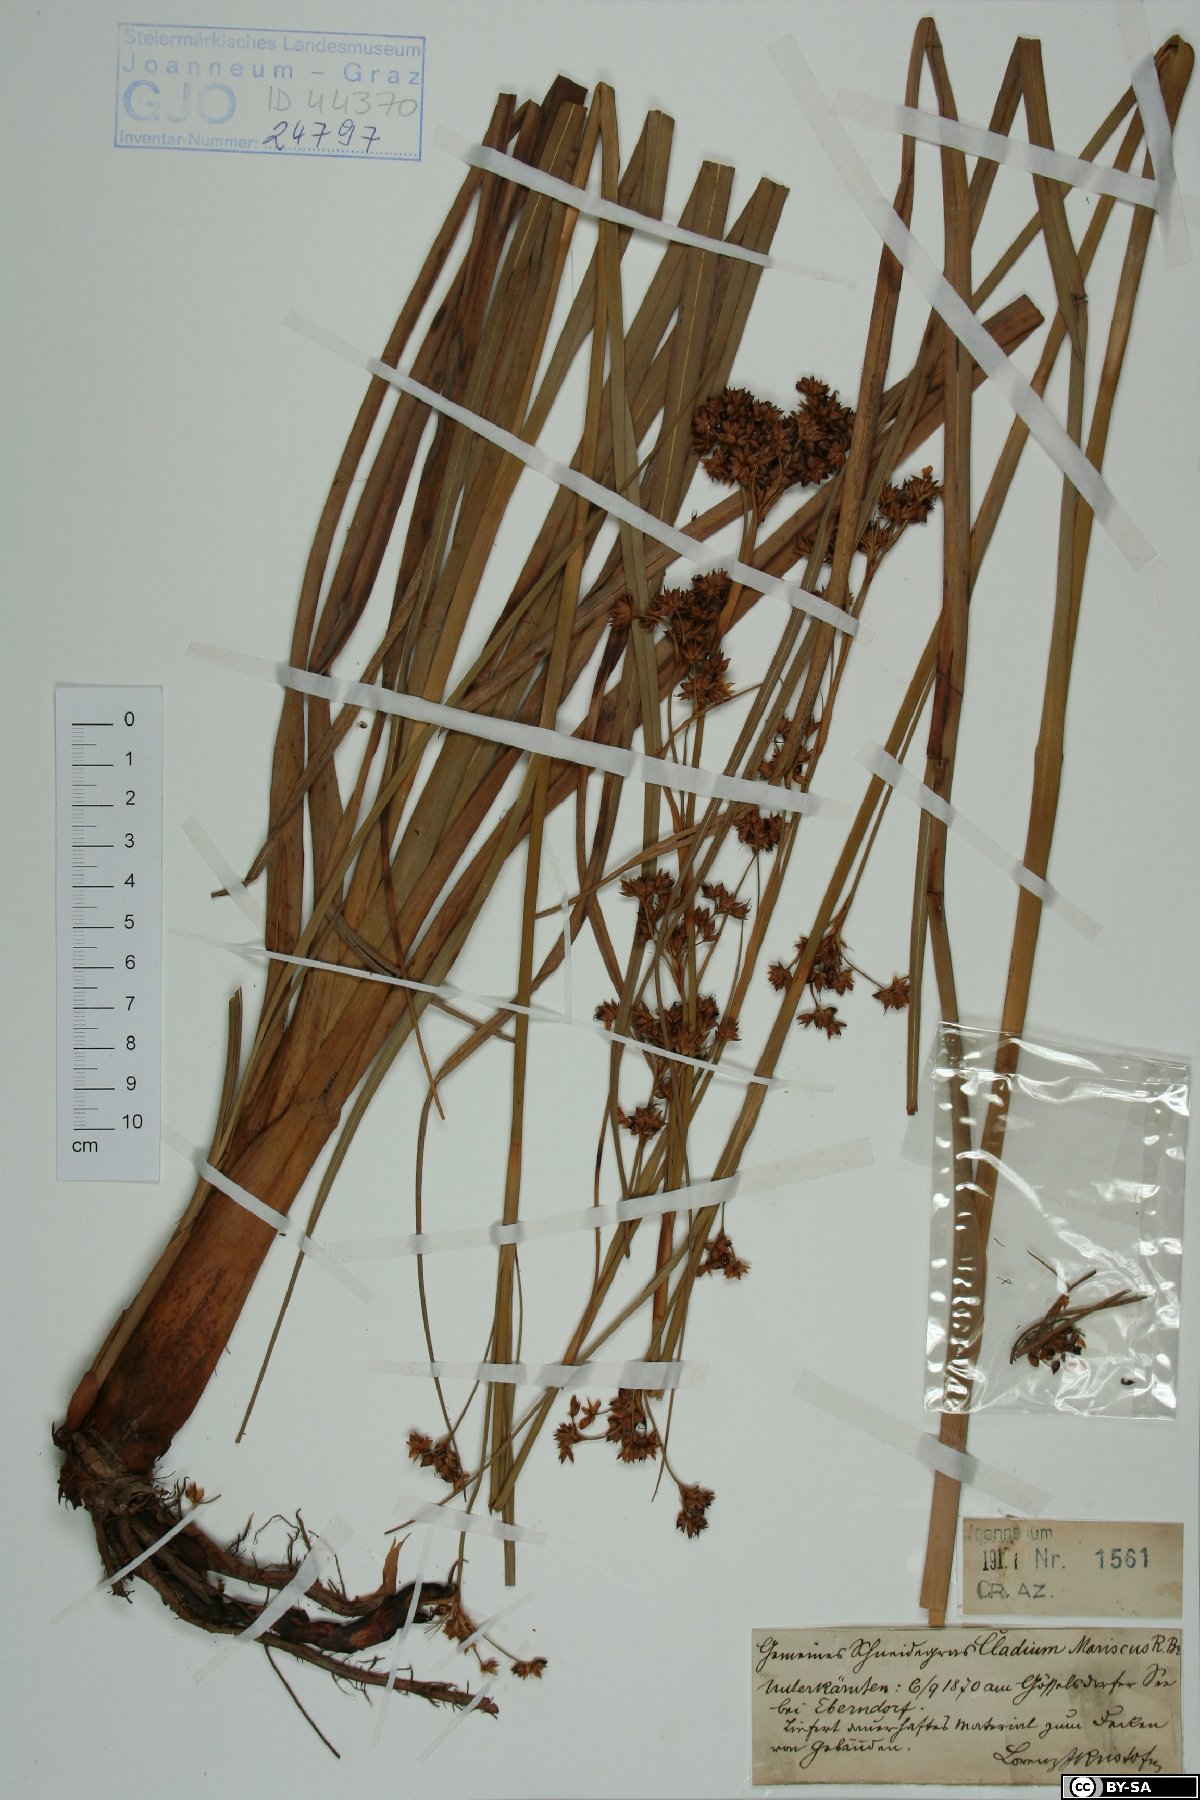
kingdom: Plantae
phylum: Tracheophyta
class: Liliopsida
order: Poales
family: Cyperaceae
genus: Cladium
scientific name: Cladium mariscus
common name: Great fen-sedge
